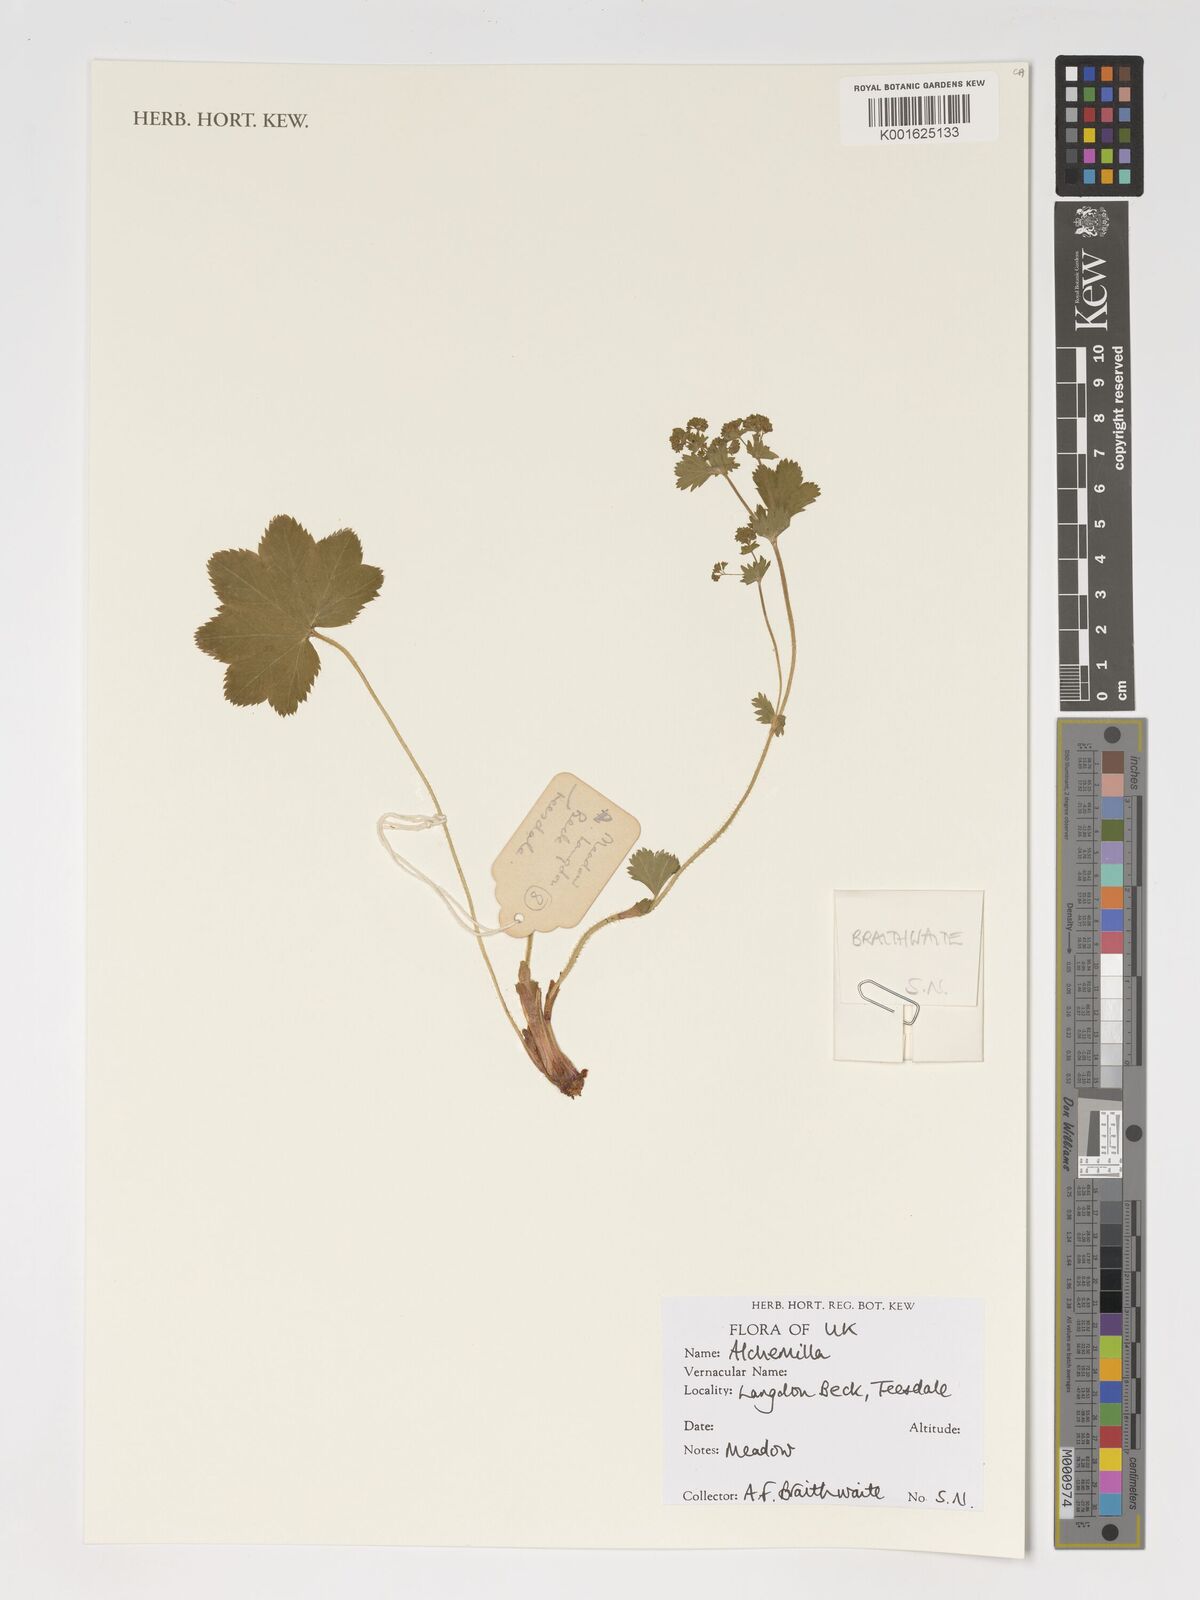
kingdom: Plantae
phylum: Tracheophyta
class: Magnoliopsida
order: Rosales
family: Rosaceae
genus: Alchemilla
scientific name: Alchemilla
